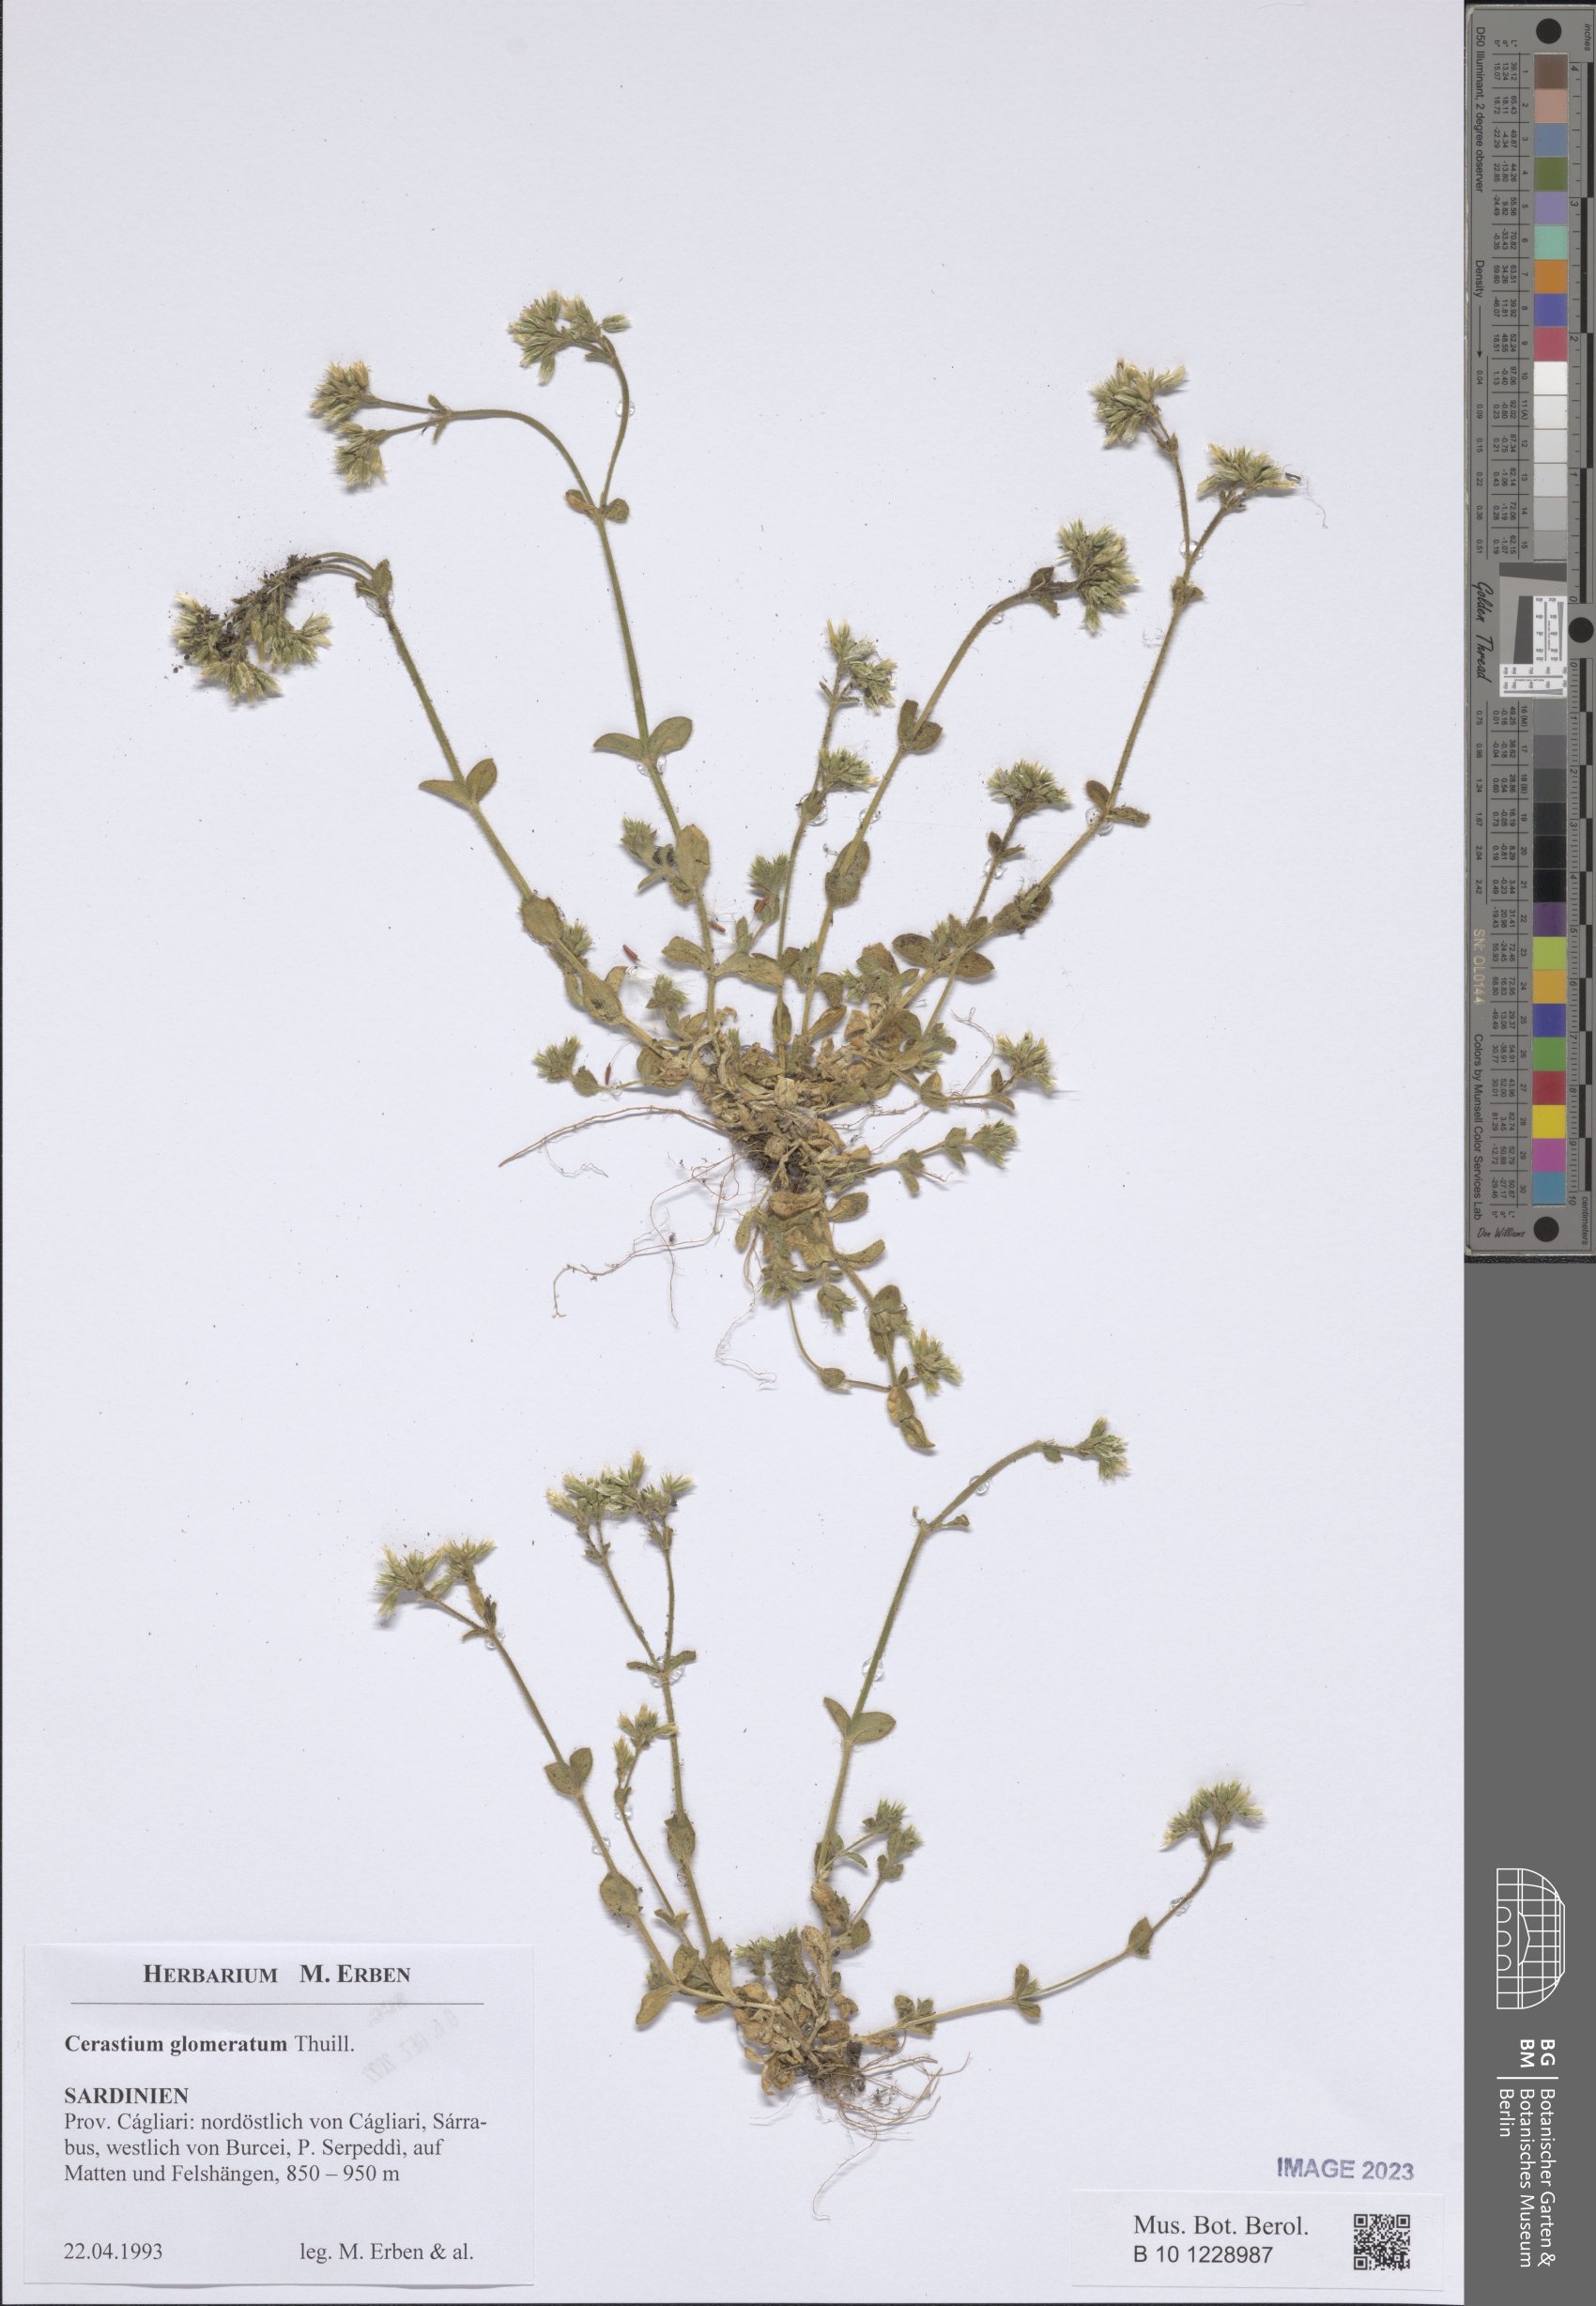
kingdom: Plantae
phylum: Tracheophyta
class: Magnoliopsida
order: Caryophyllales
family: Caryophyllaceae
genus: Cerastium
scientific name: Cerastium glomeratum
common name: Sticky chickweed
